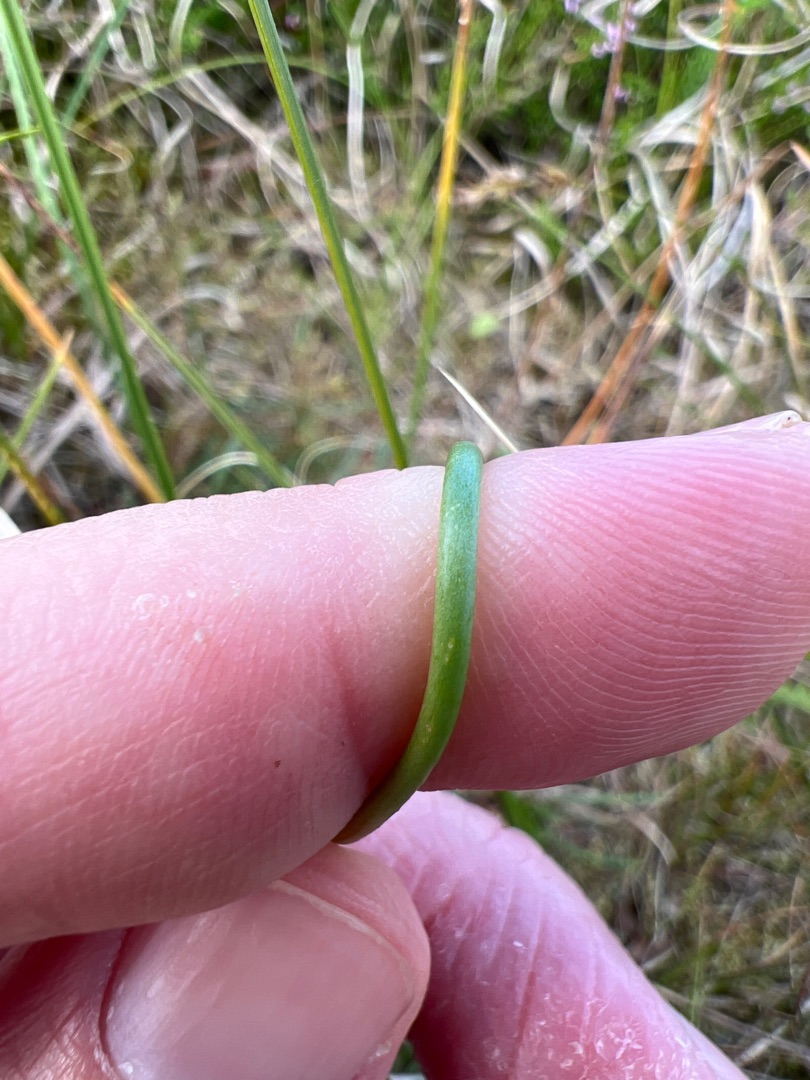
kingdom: Plantae
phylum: Tracheophyta
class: Magnoliopsida
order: Caryophyllales
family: Plumbaginaceae
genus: Armeria
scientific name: Armeria maritima
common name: Strand-engelskgræs
